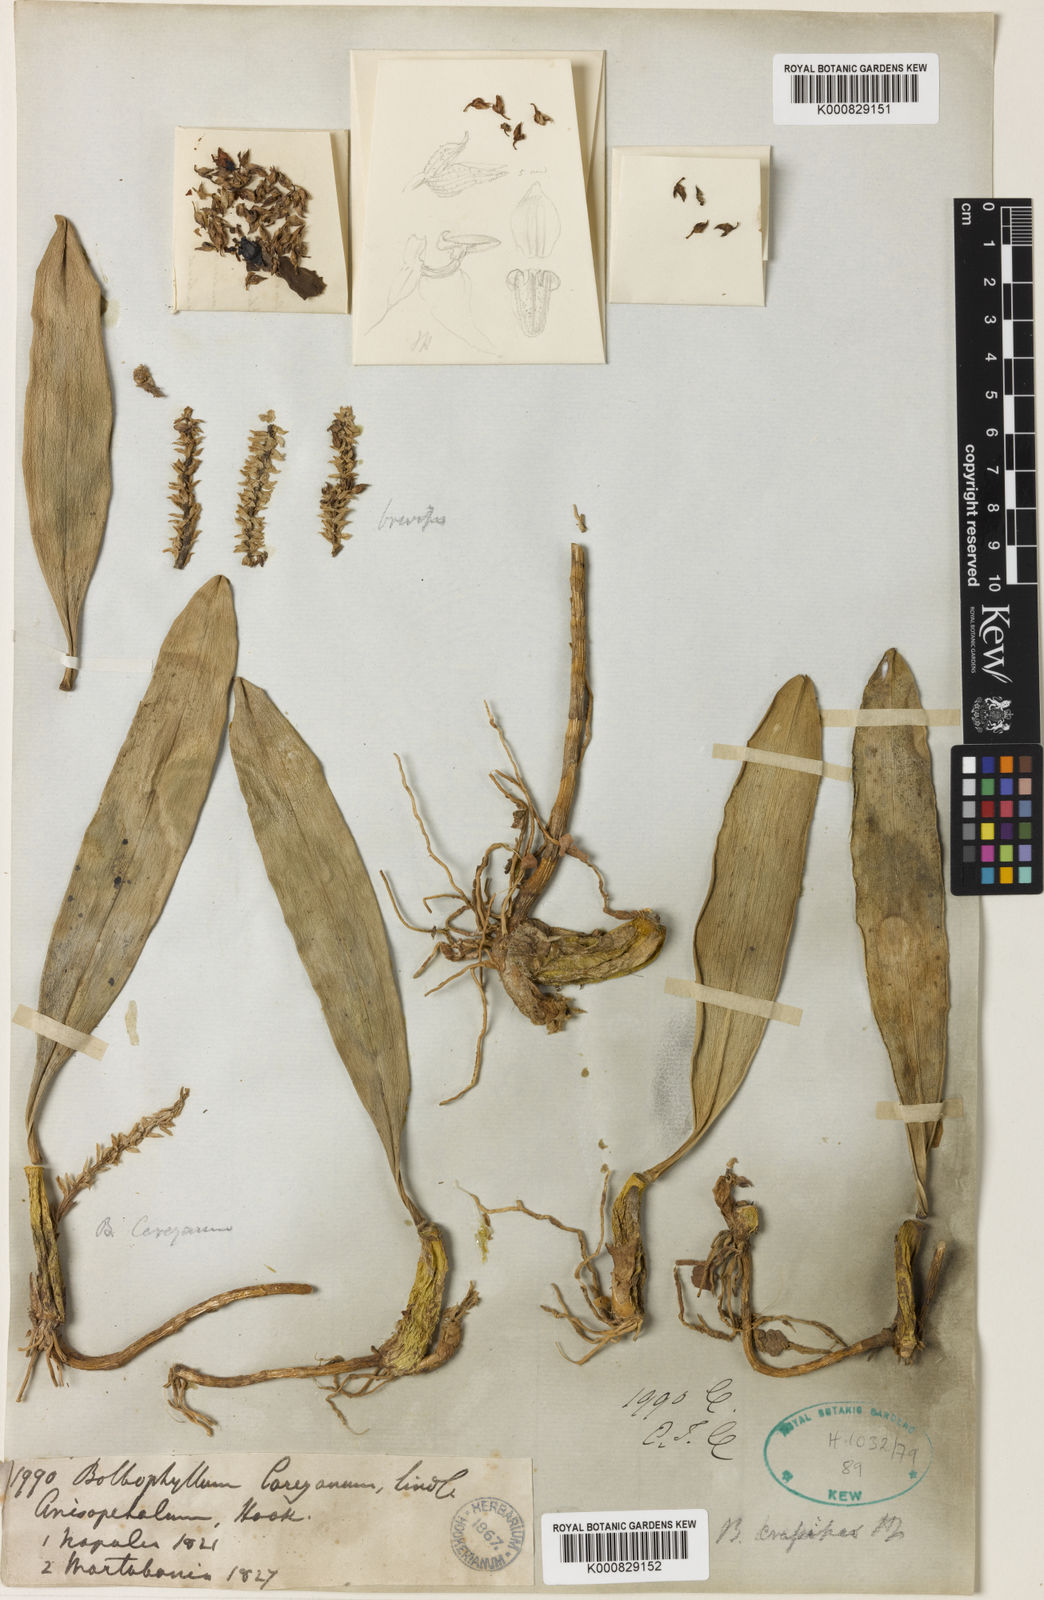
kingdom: Plantae
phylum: Tracheophyta
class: Liliopsida
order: Asparagales
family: Orchidaceae
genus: Bulbophyllum
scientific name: Bulbophyllum crassipes
